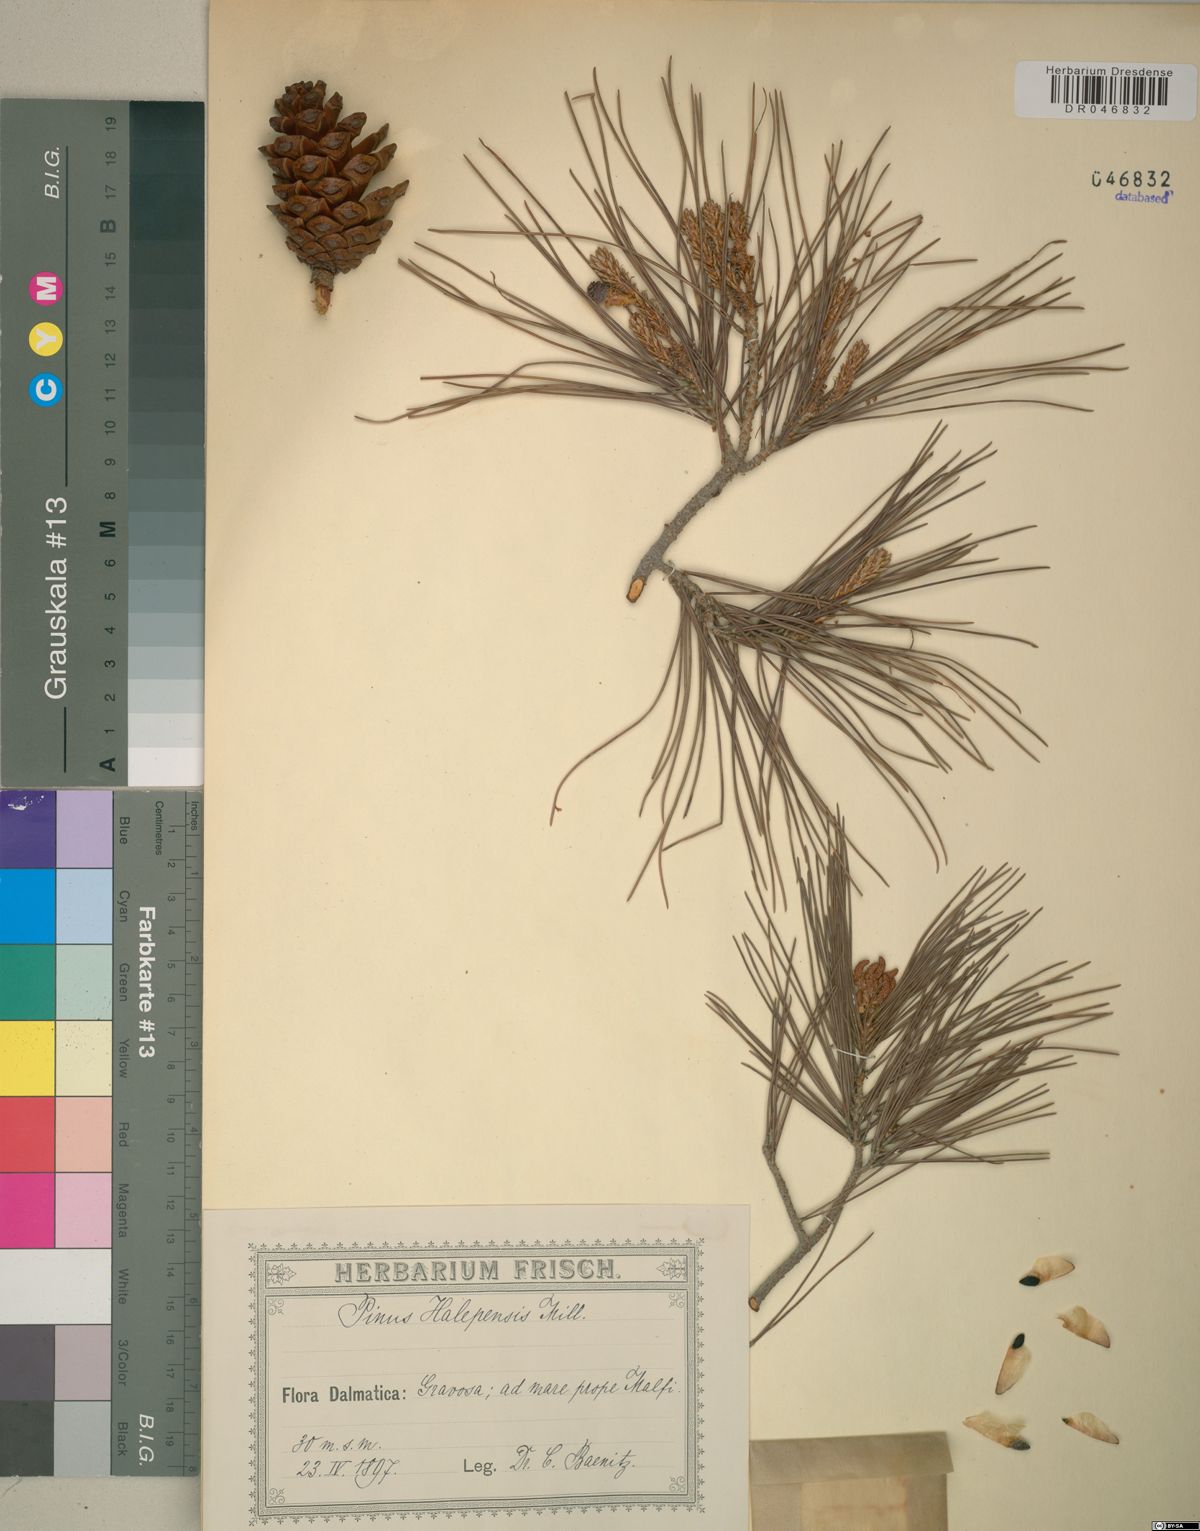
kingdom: Plantae
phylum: Tracheophyta
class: Pinopsida
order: Pinales
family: Pinaceae
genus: Pinus
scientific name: Pinus halepensis
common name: Aleppo pine
